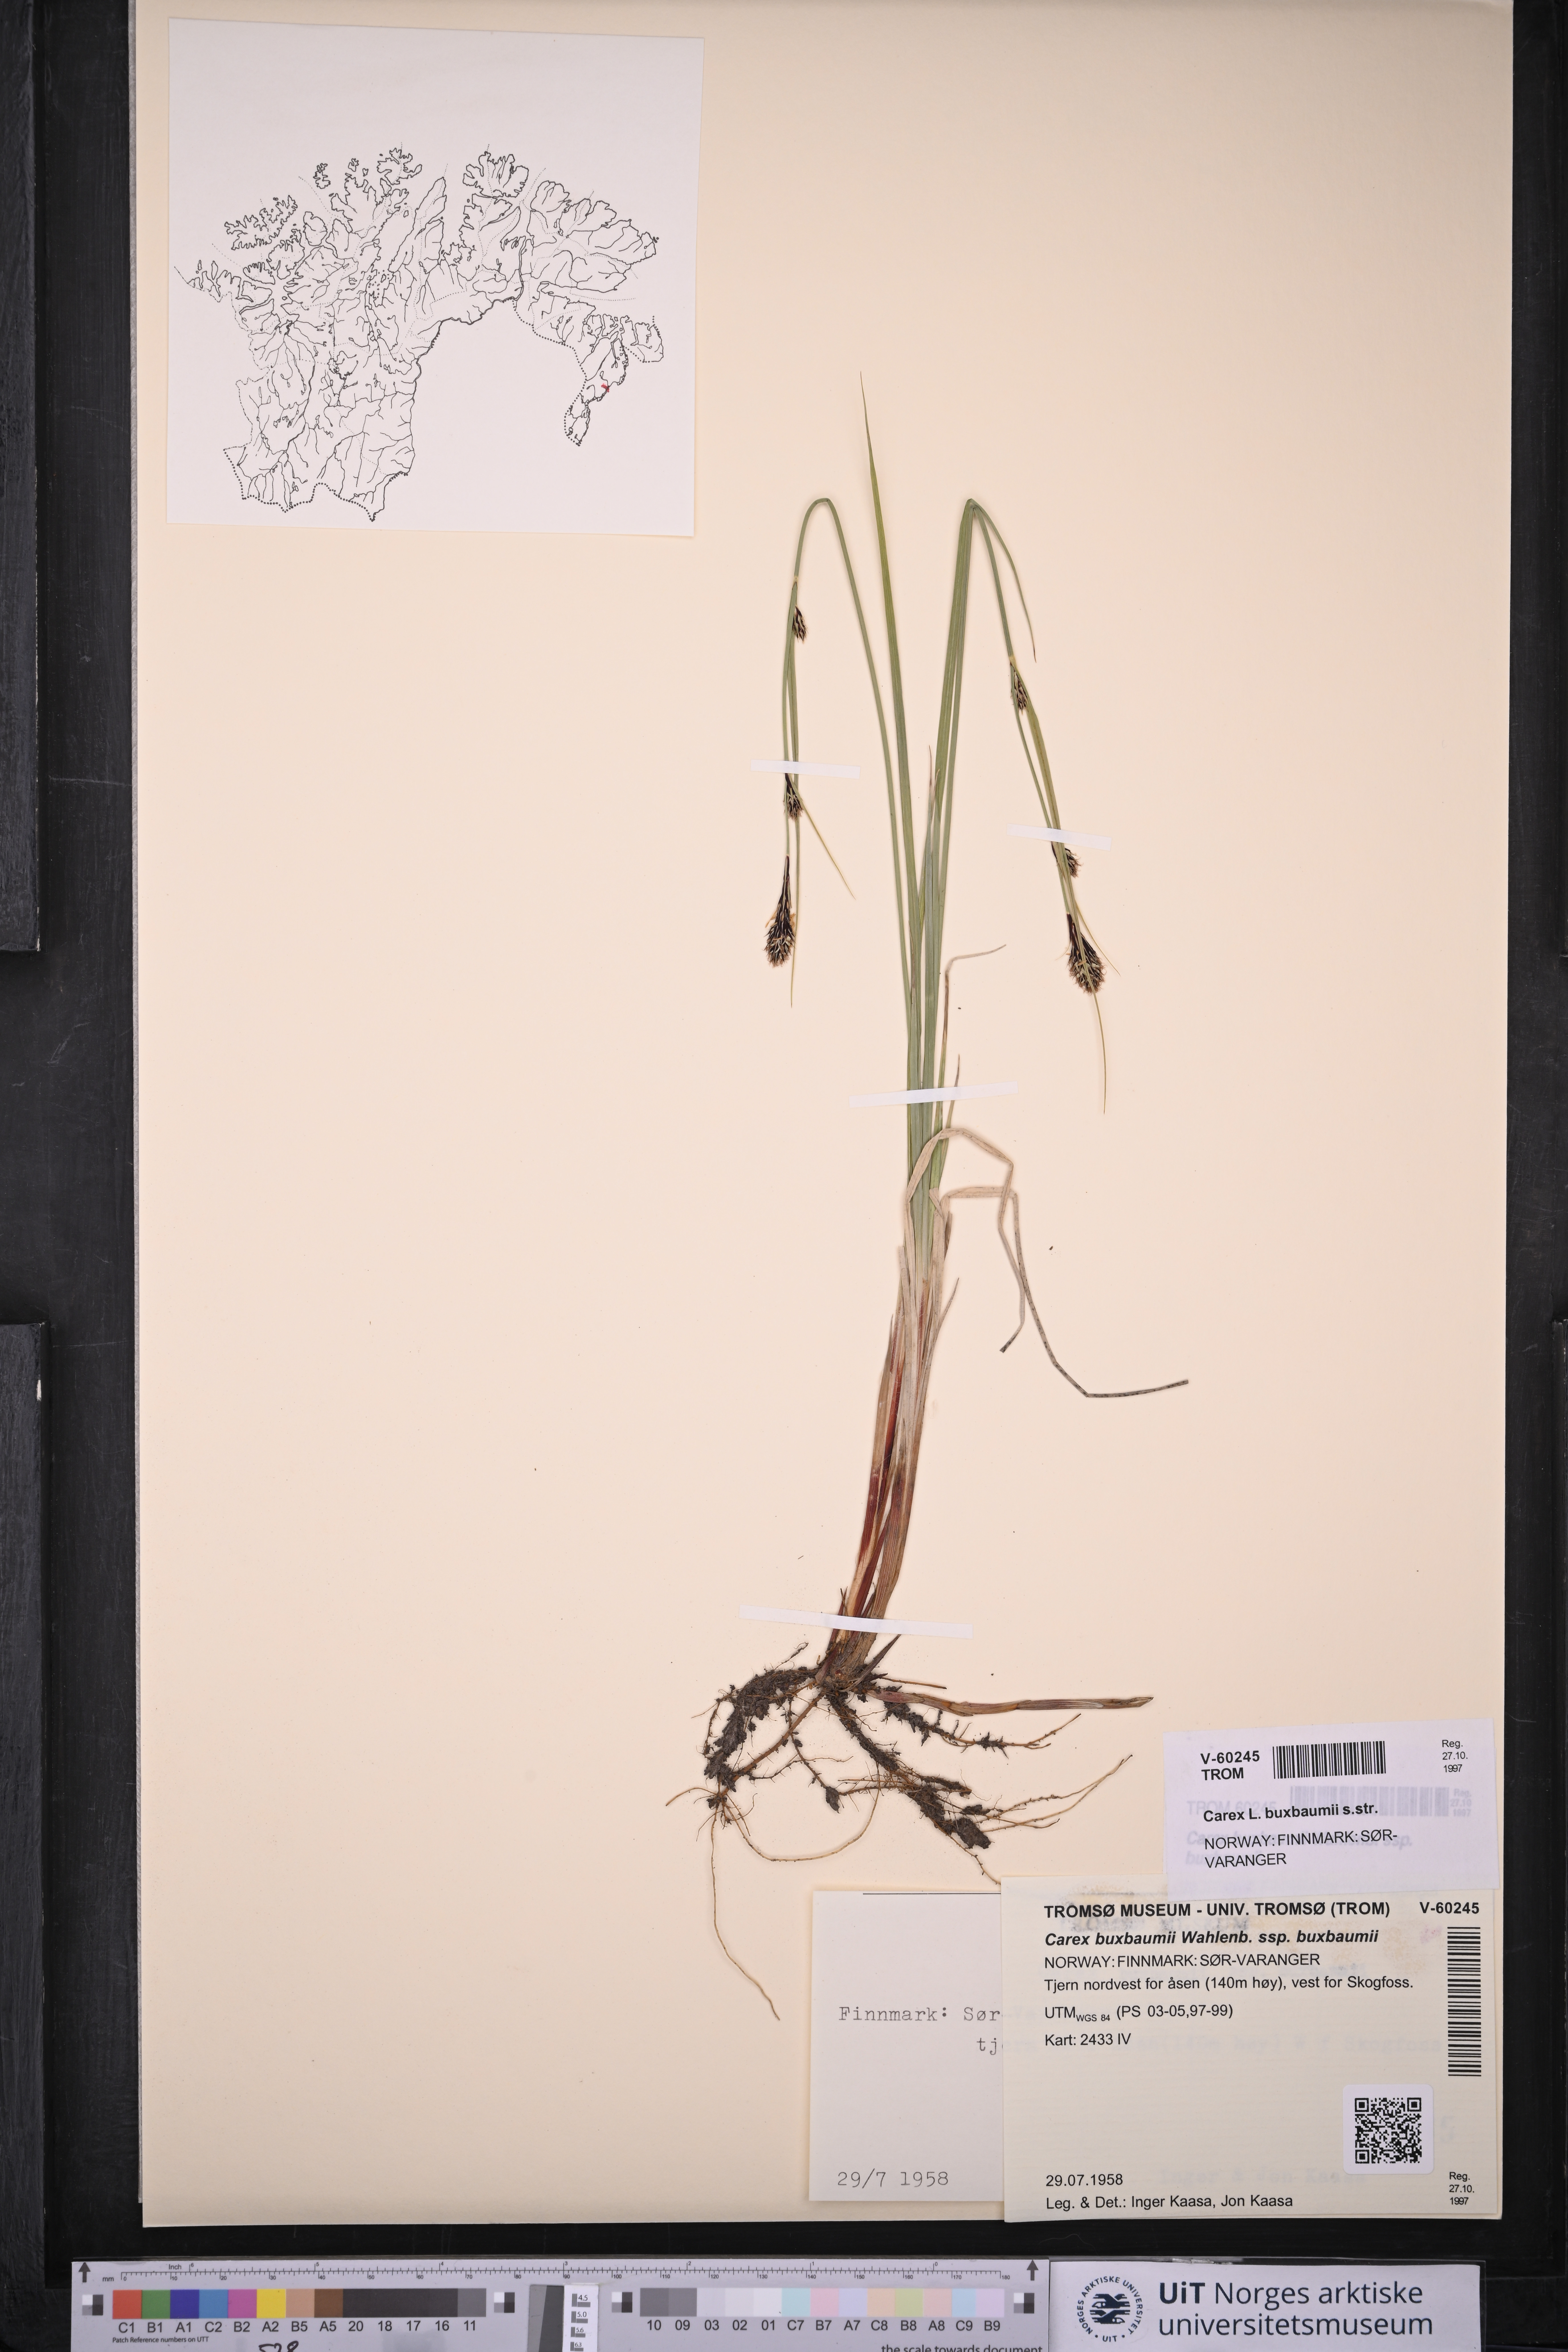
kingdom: Plantae
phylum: Tracheophyta
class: Liliopsida
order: Poales
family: Cyperaceae
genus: Carex
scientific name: Carex buxbaumii
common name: Club sedge
